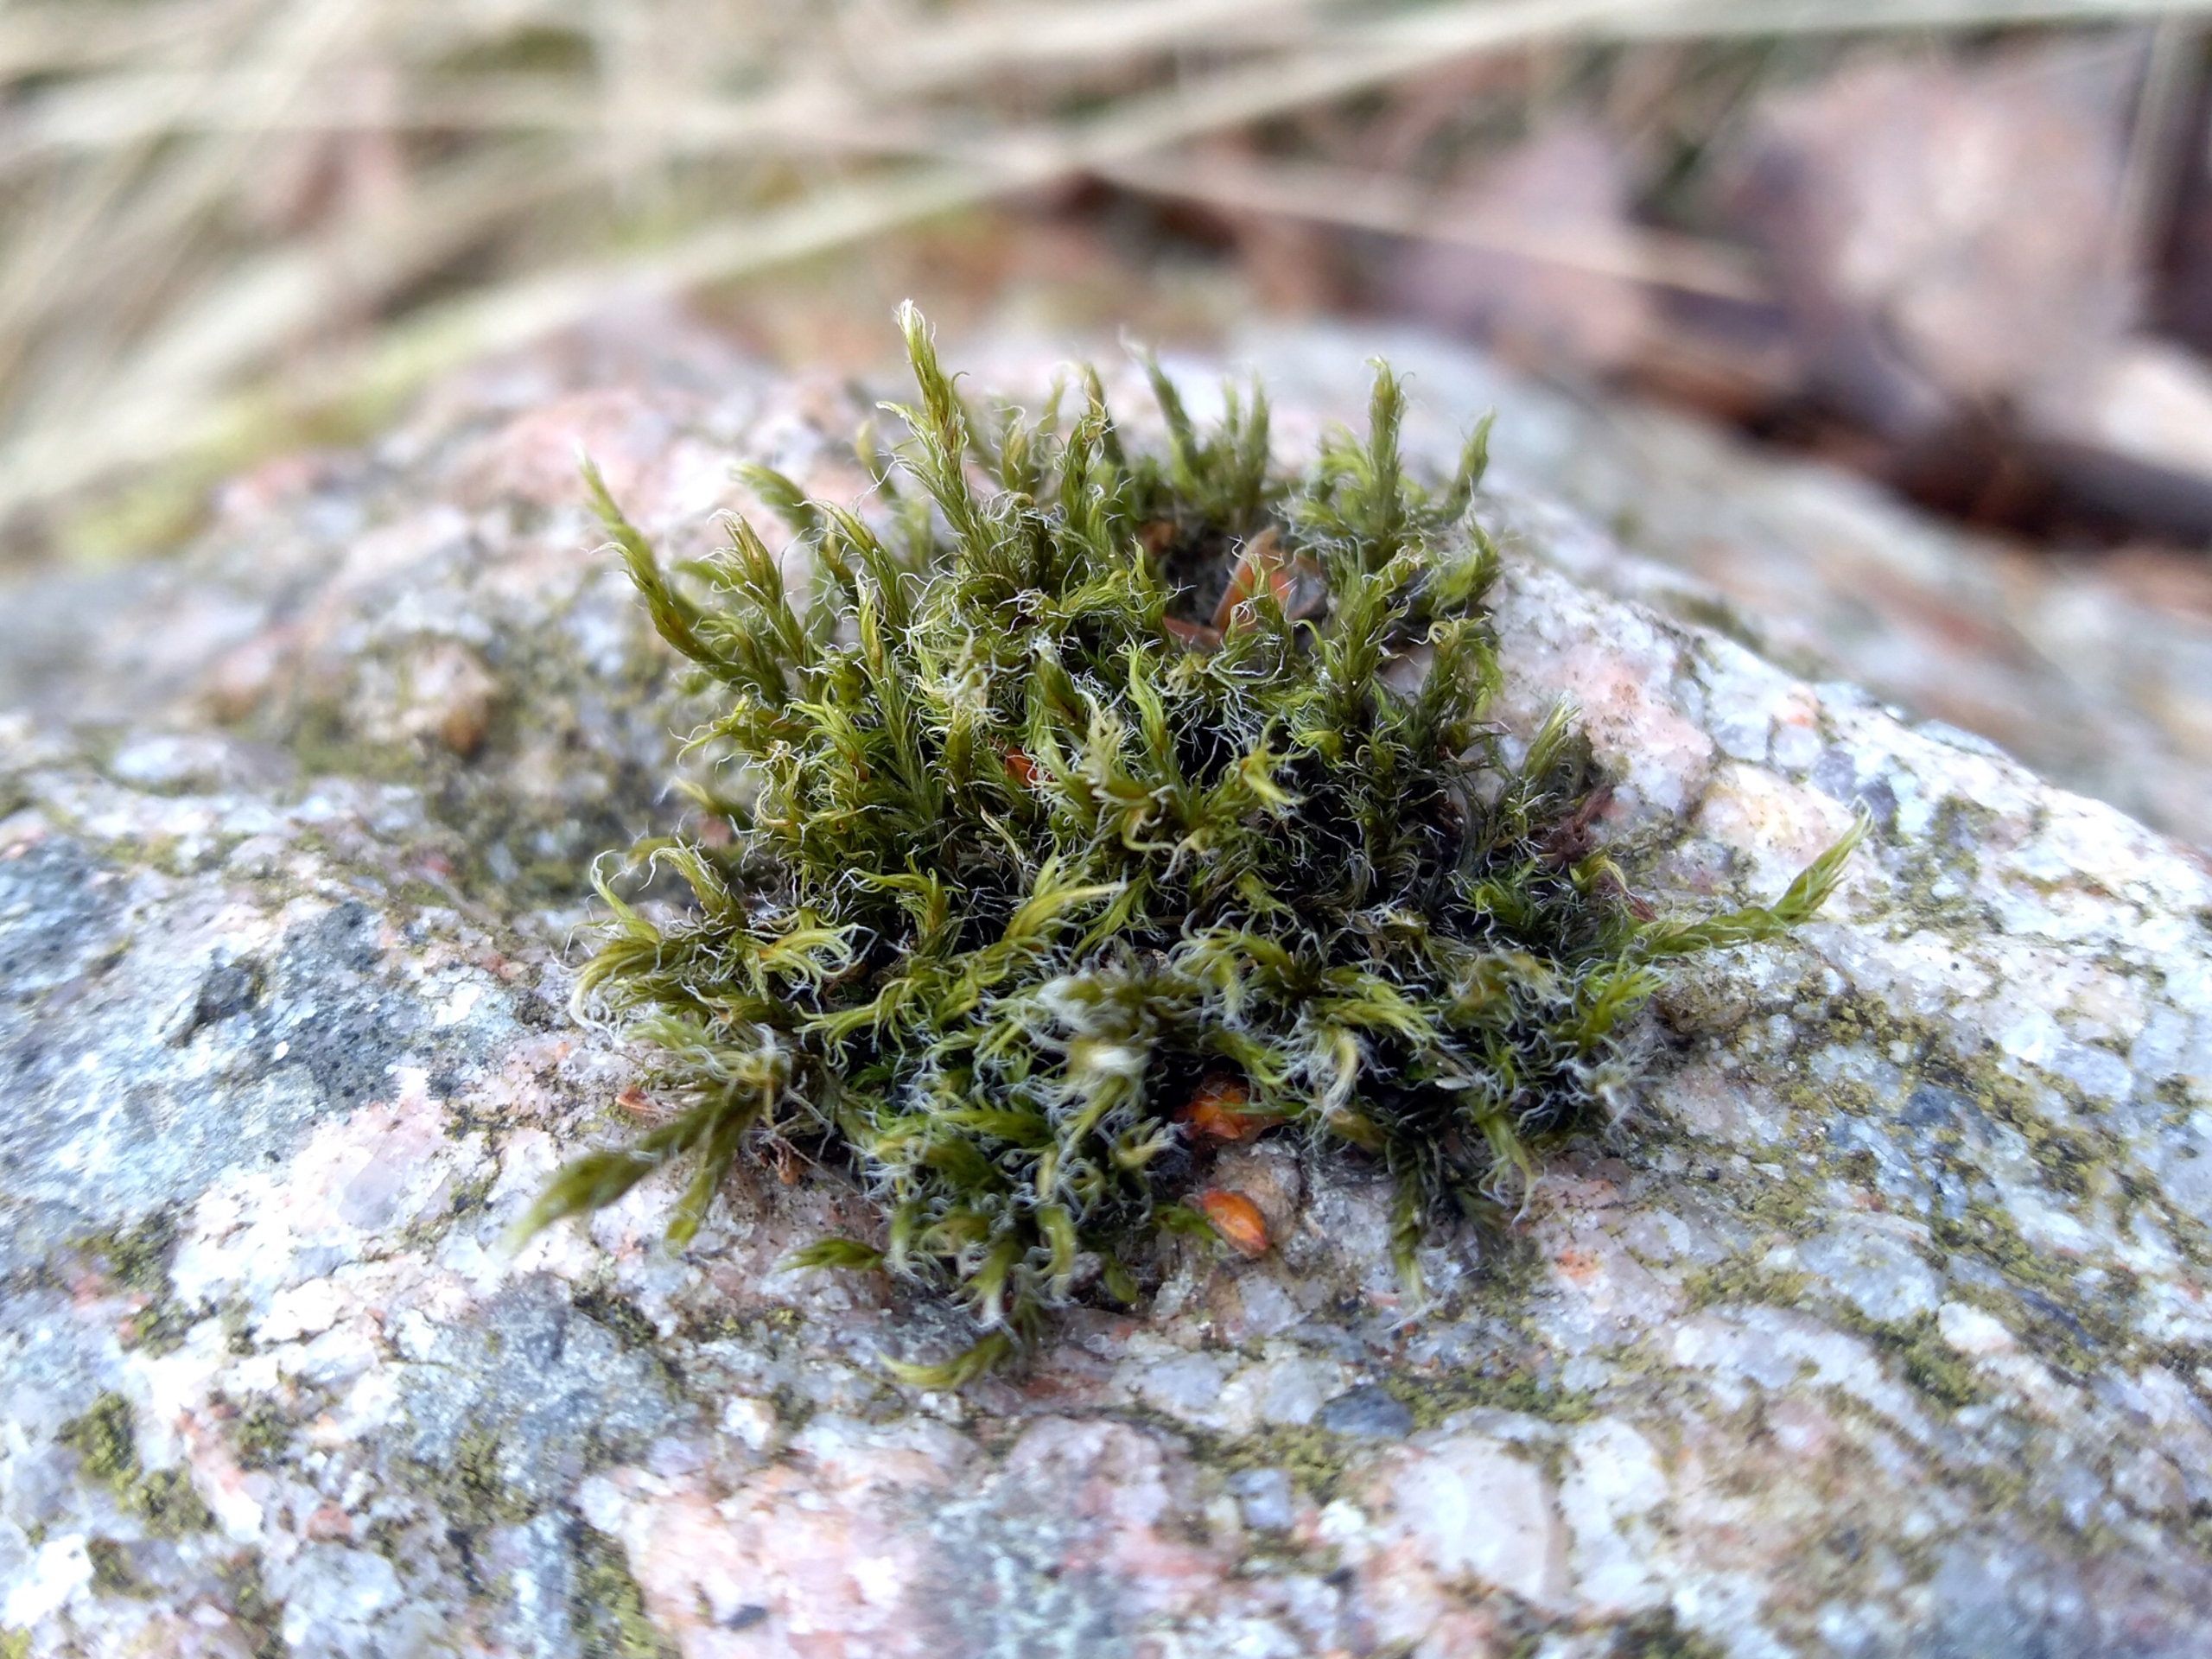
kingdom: Plantae
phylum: Bryophyta
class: Bryopsida
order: Grimmiales
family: Grimmiaceae
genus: Racomitrium
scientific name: Racomitrium lanuginosum
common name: Stor børstemos
